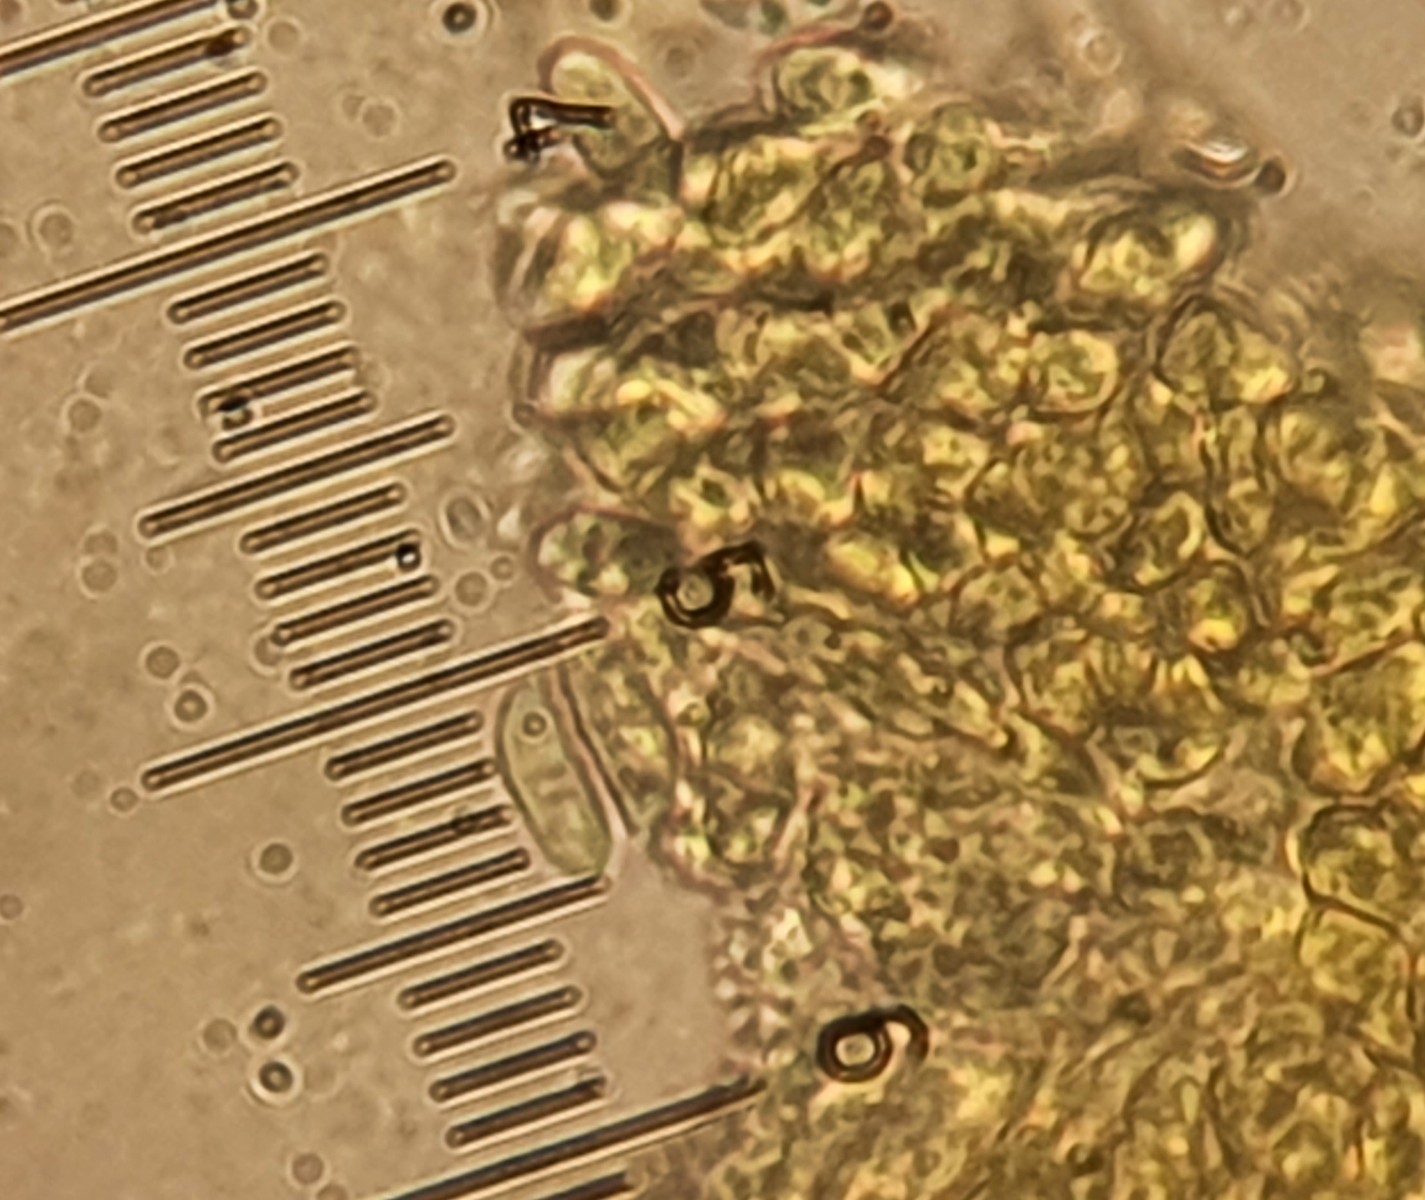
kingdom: Fungi
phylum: Basidiomycota
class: Agaricomycetes
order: Agaricales
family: Mycenaceae
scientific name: Mycenaceae
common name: huesvampfamilien
